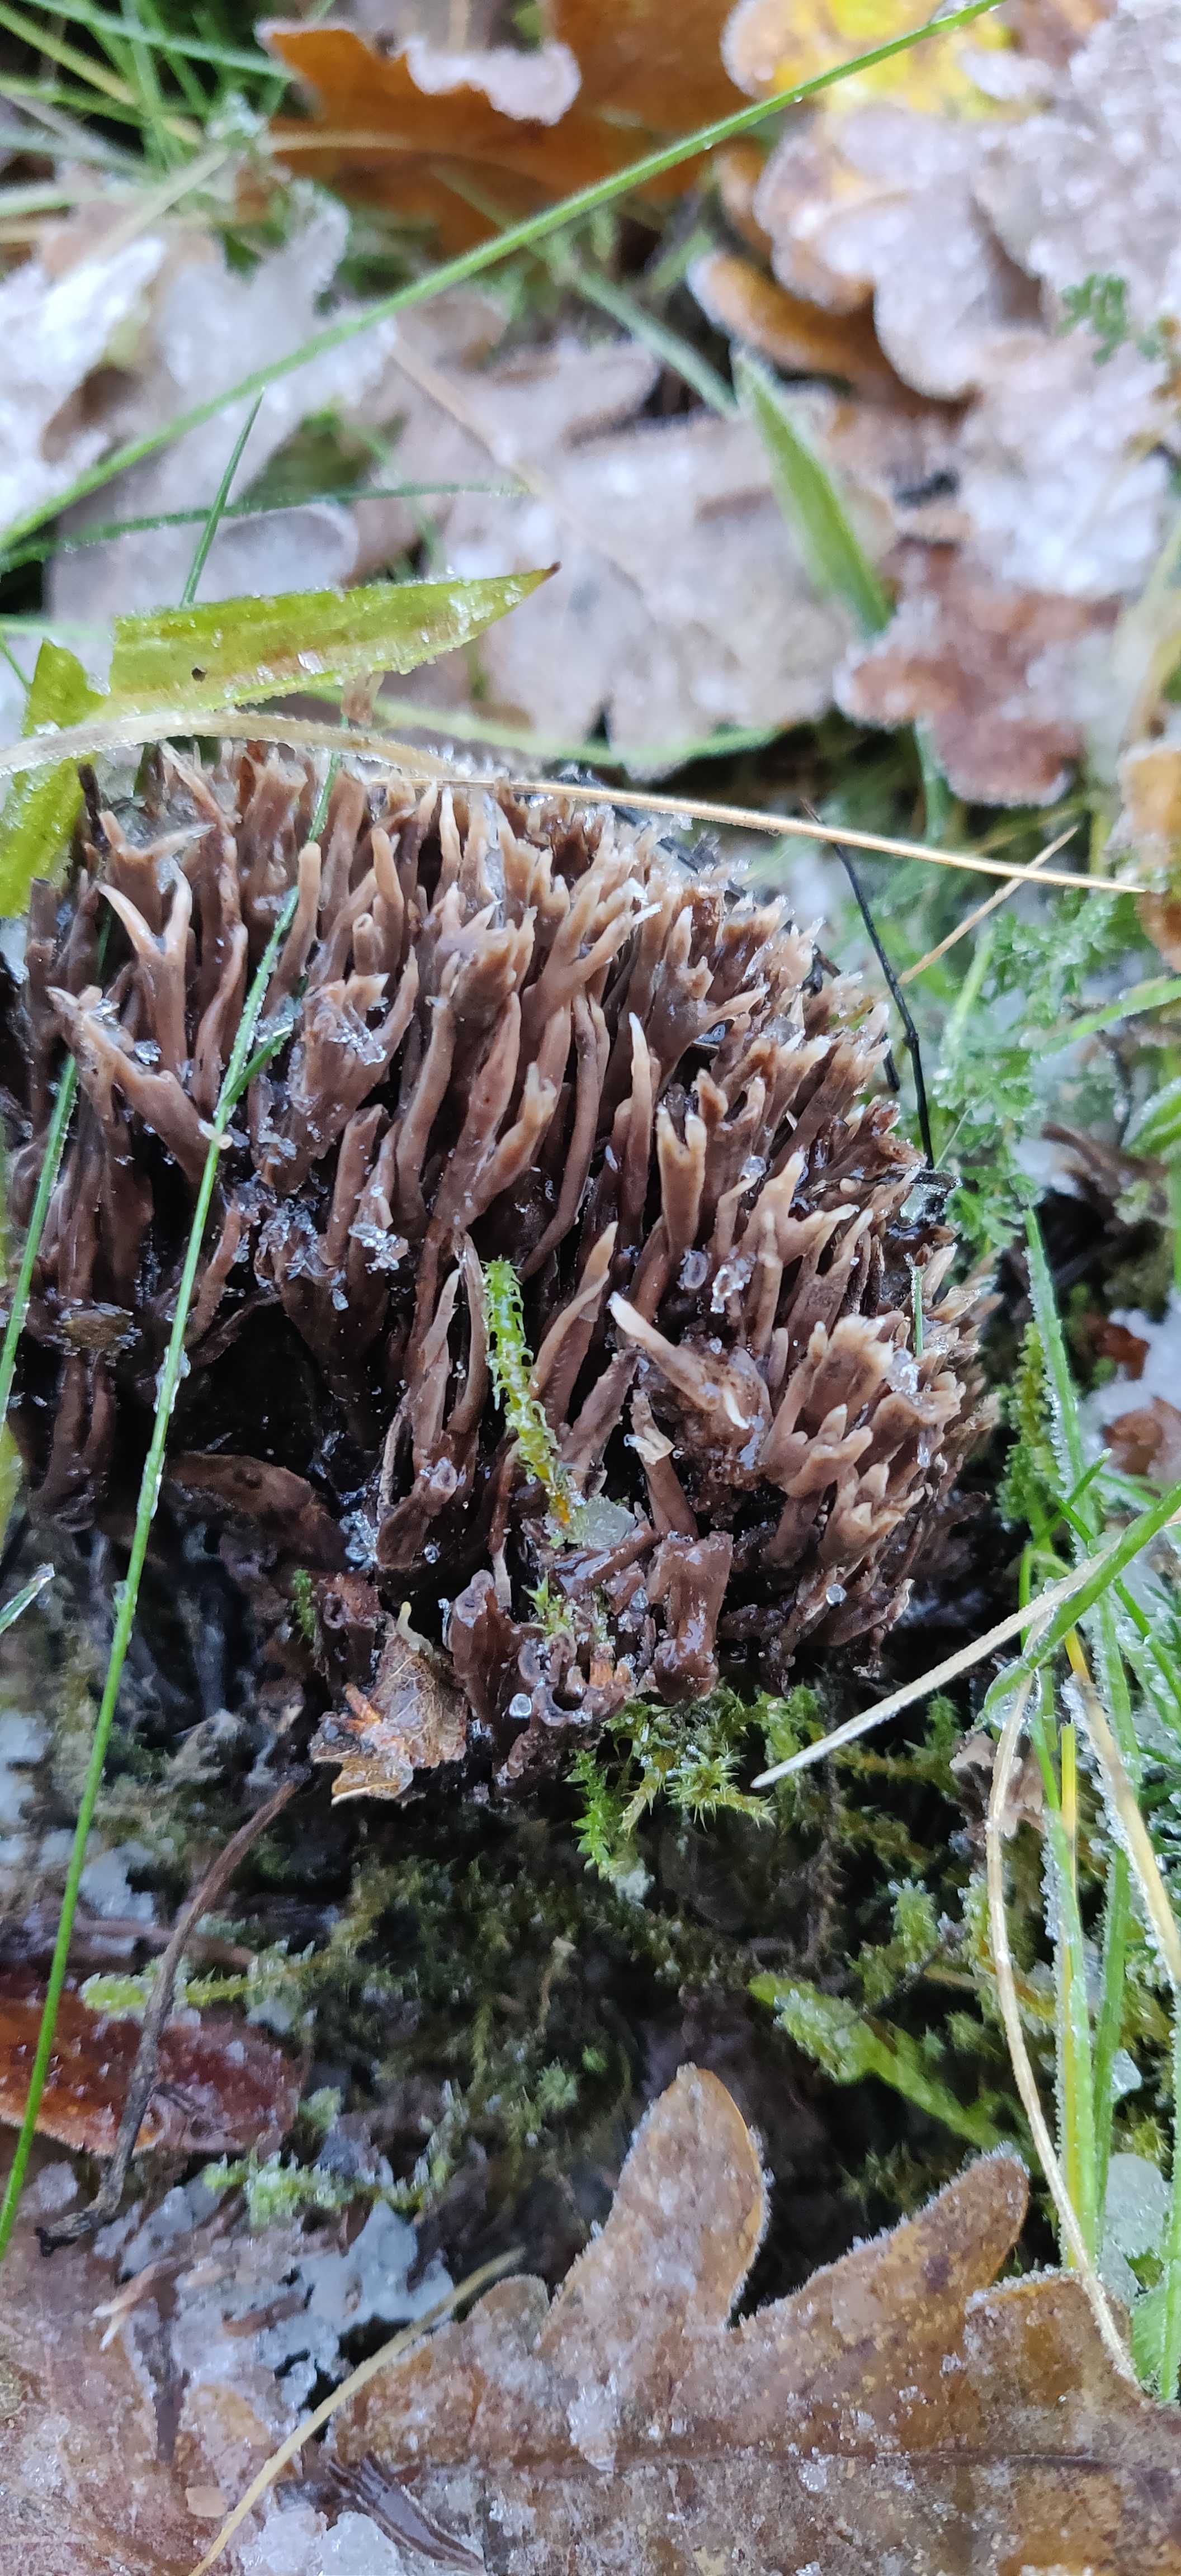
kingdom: Fungi
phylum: Basidiomycota
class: Agaricomycetes
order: Thelephorales
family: Thelephoraceae
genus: Thelephora
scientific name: Thelephora palmata
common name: grenet frynsesvamp
